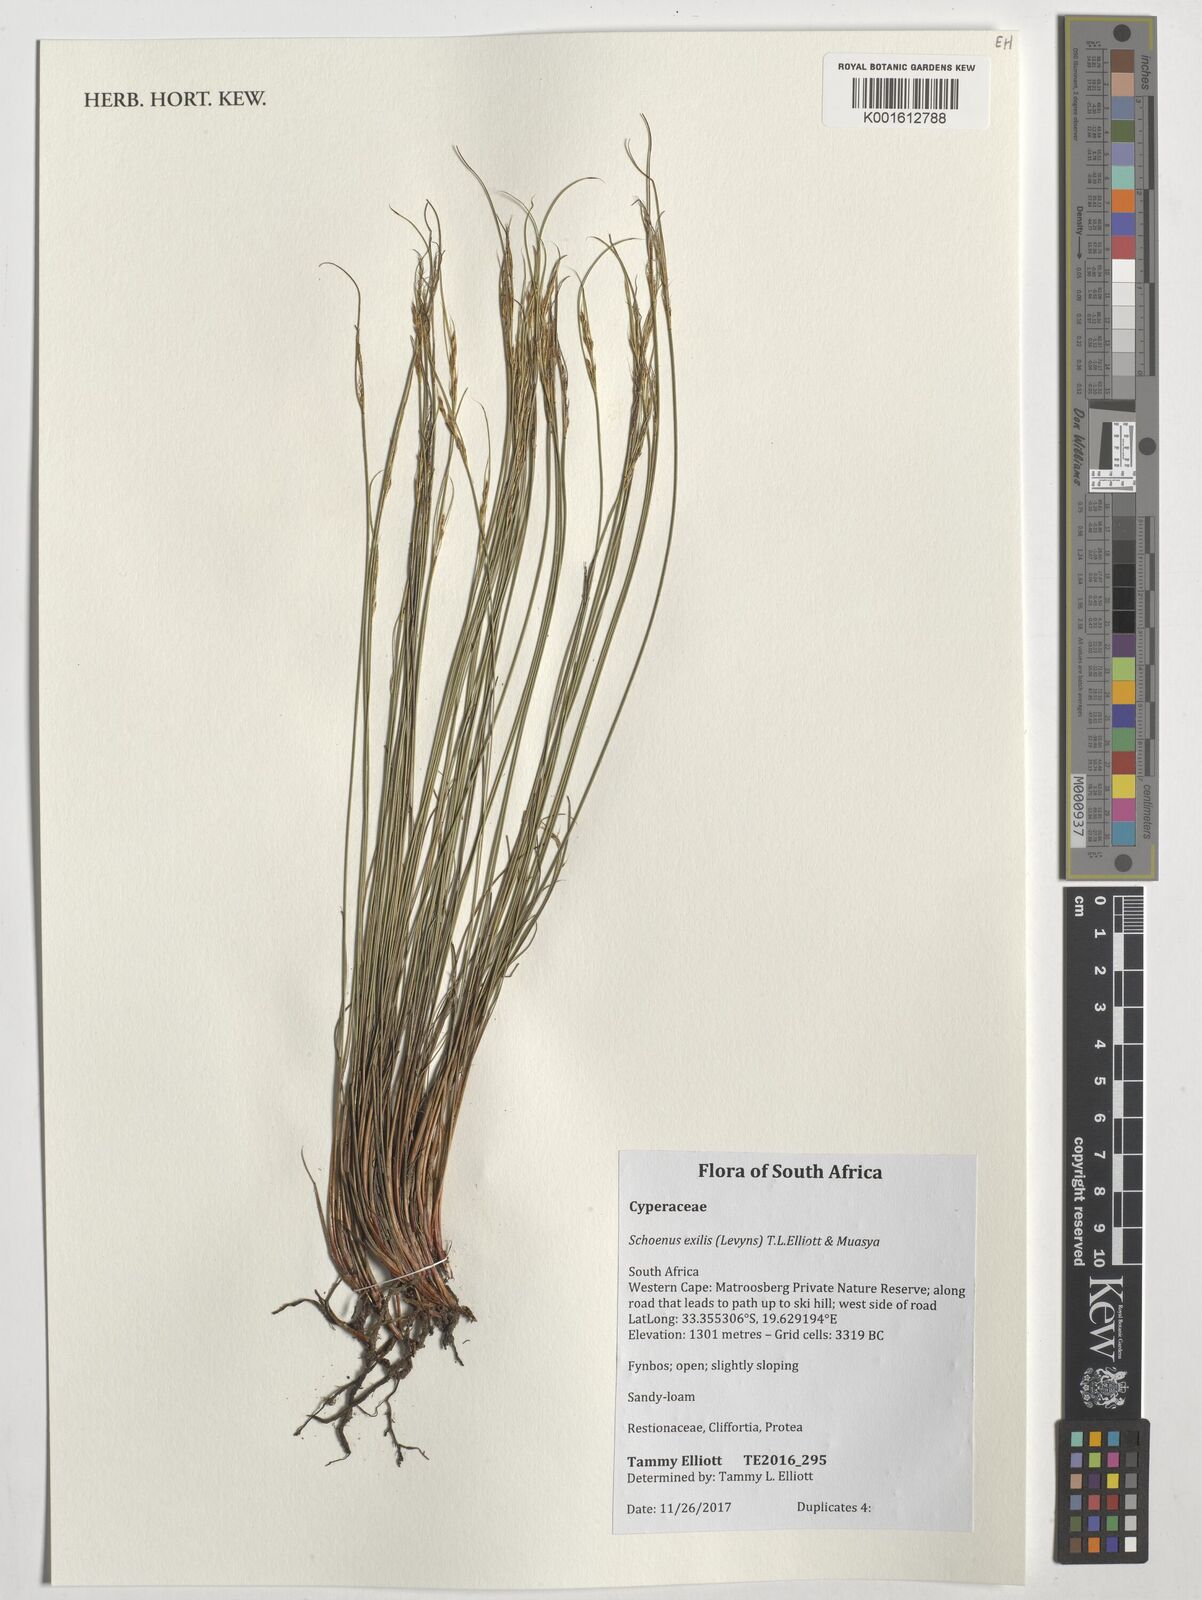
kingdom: Plantae
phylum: Tracheophyta
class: Liliopsida
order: Poales
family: Cyperaceae
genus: Schoenus
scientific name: Schoenus exilis
